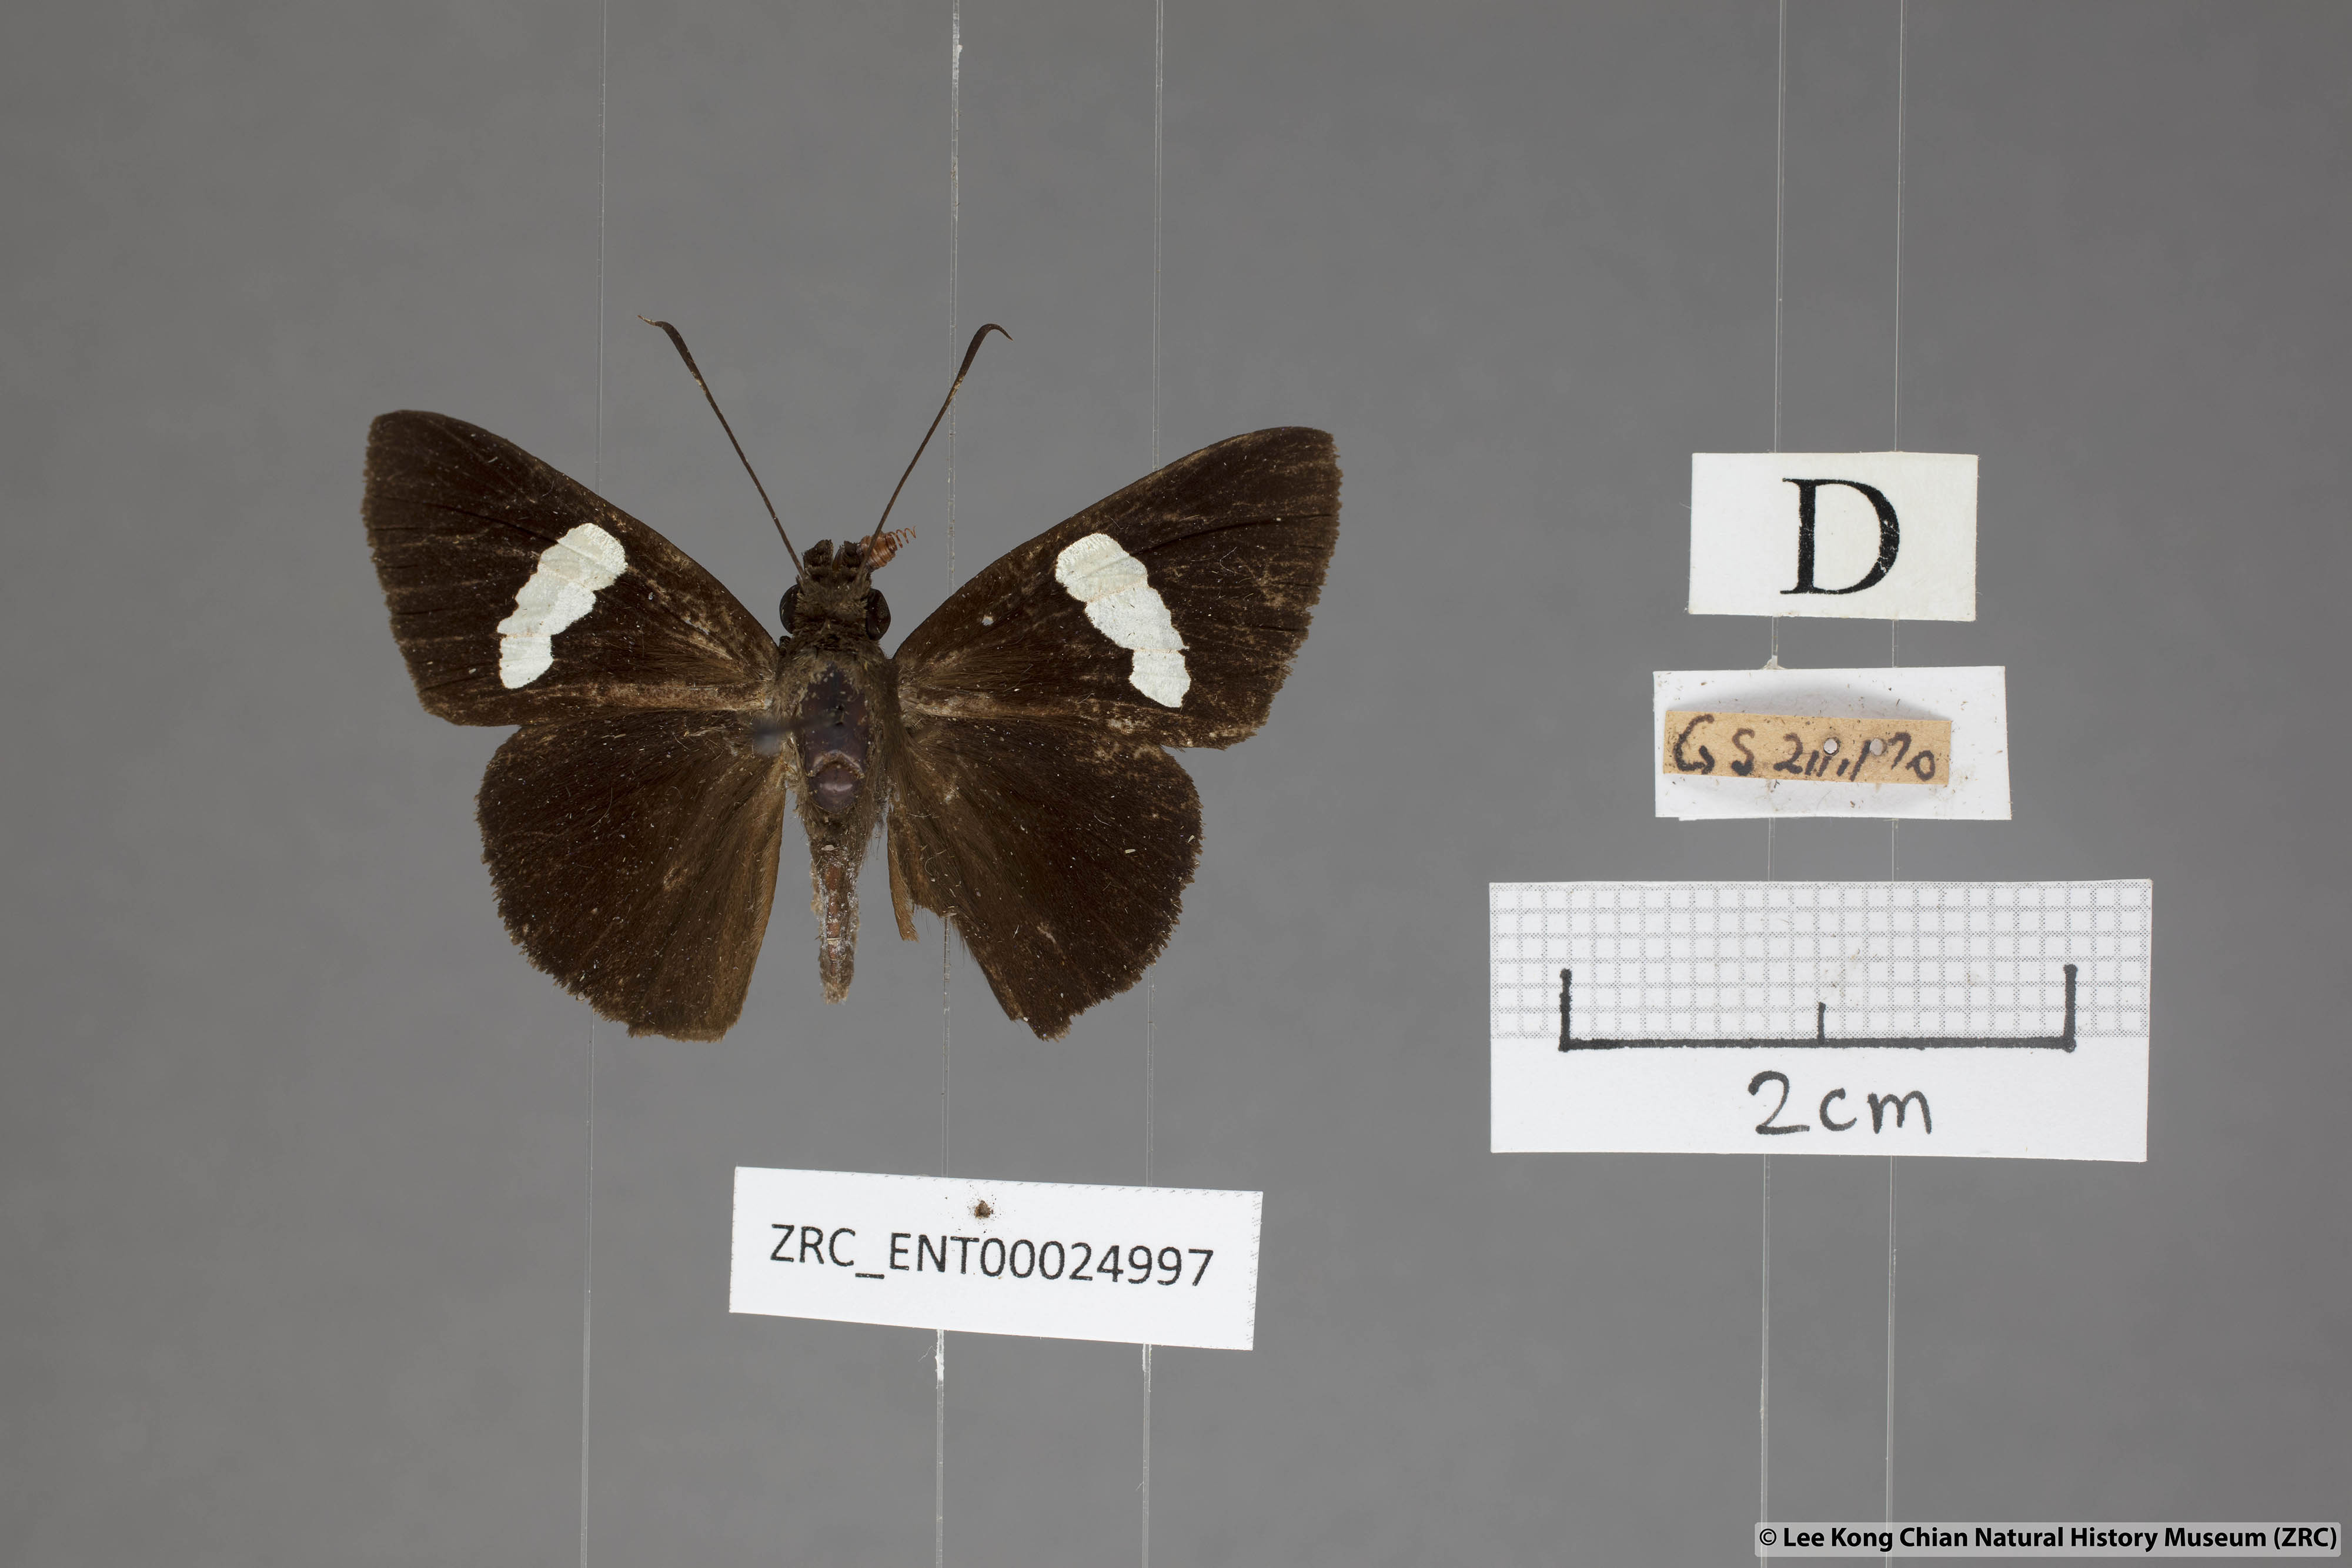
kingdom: Animalia
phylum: Arthropoda
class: Insecta
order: Lepidoptera
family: Hesperiidae
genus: Notocrypta
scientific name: Notocrypta clavata
